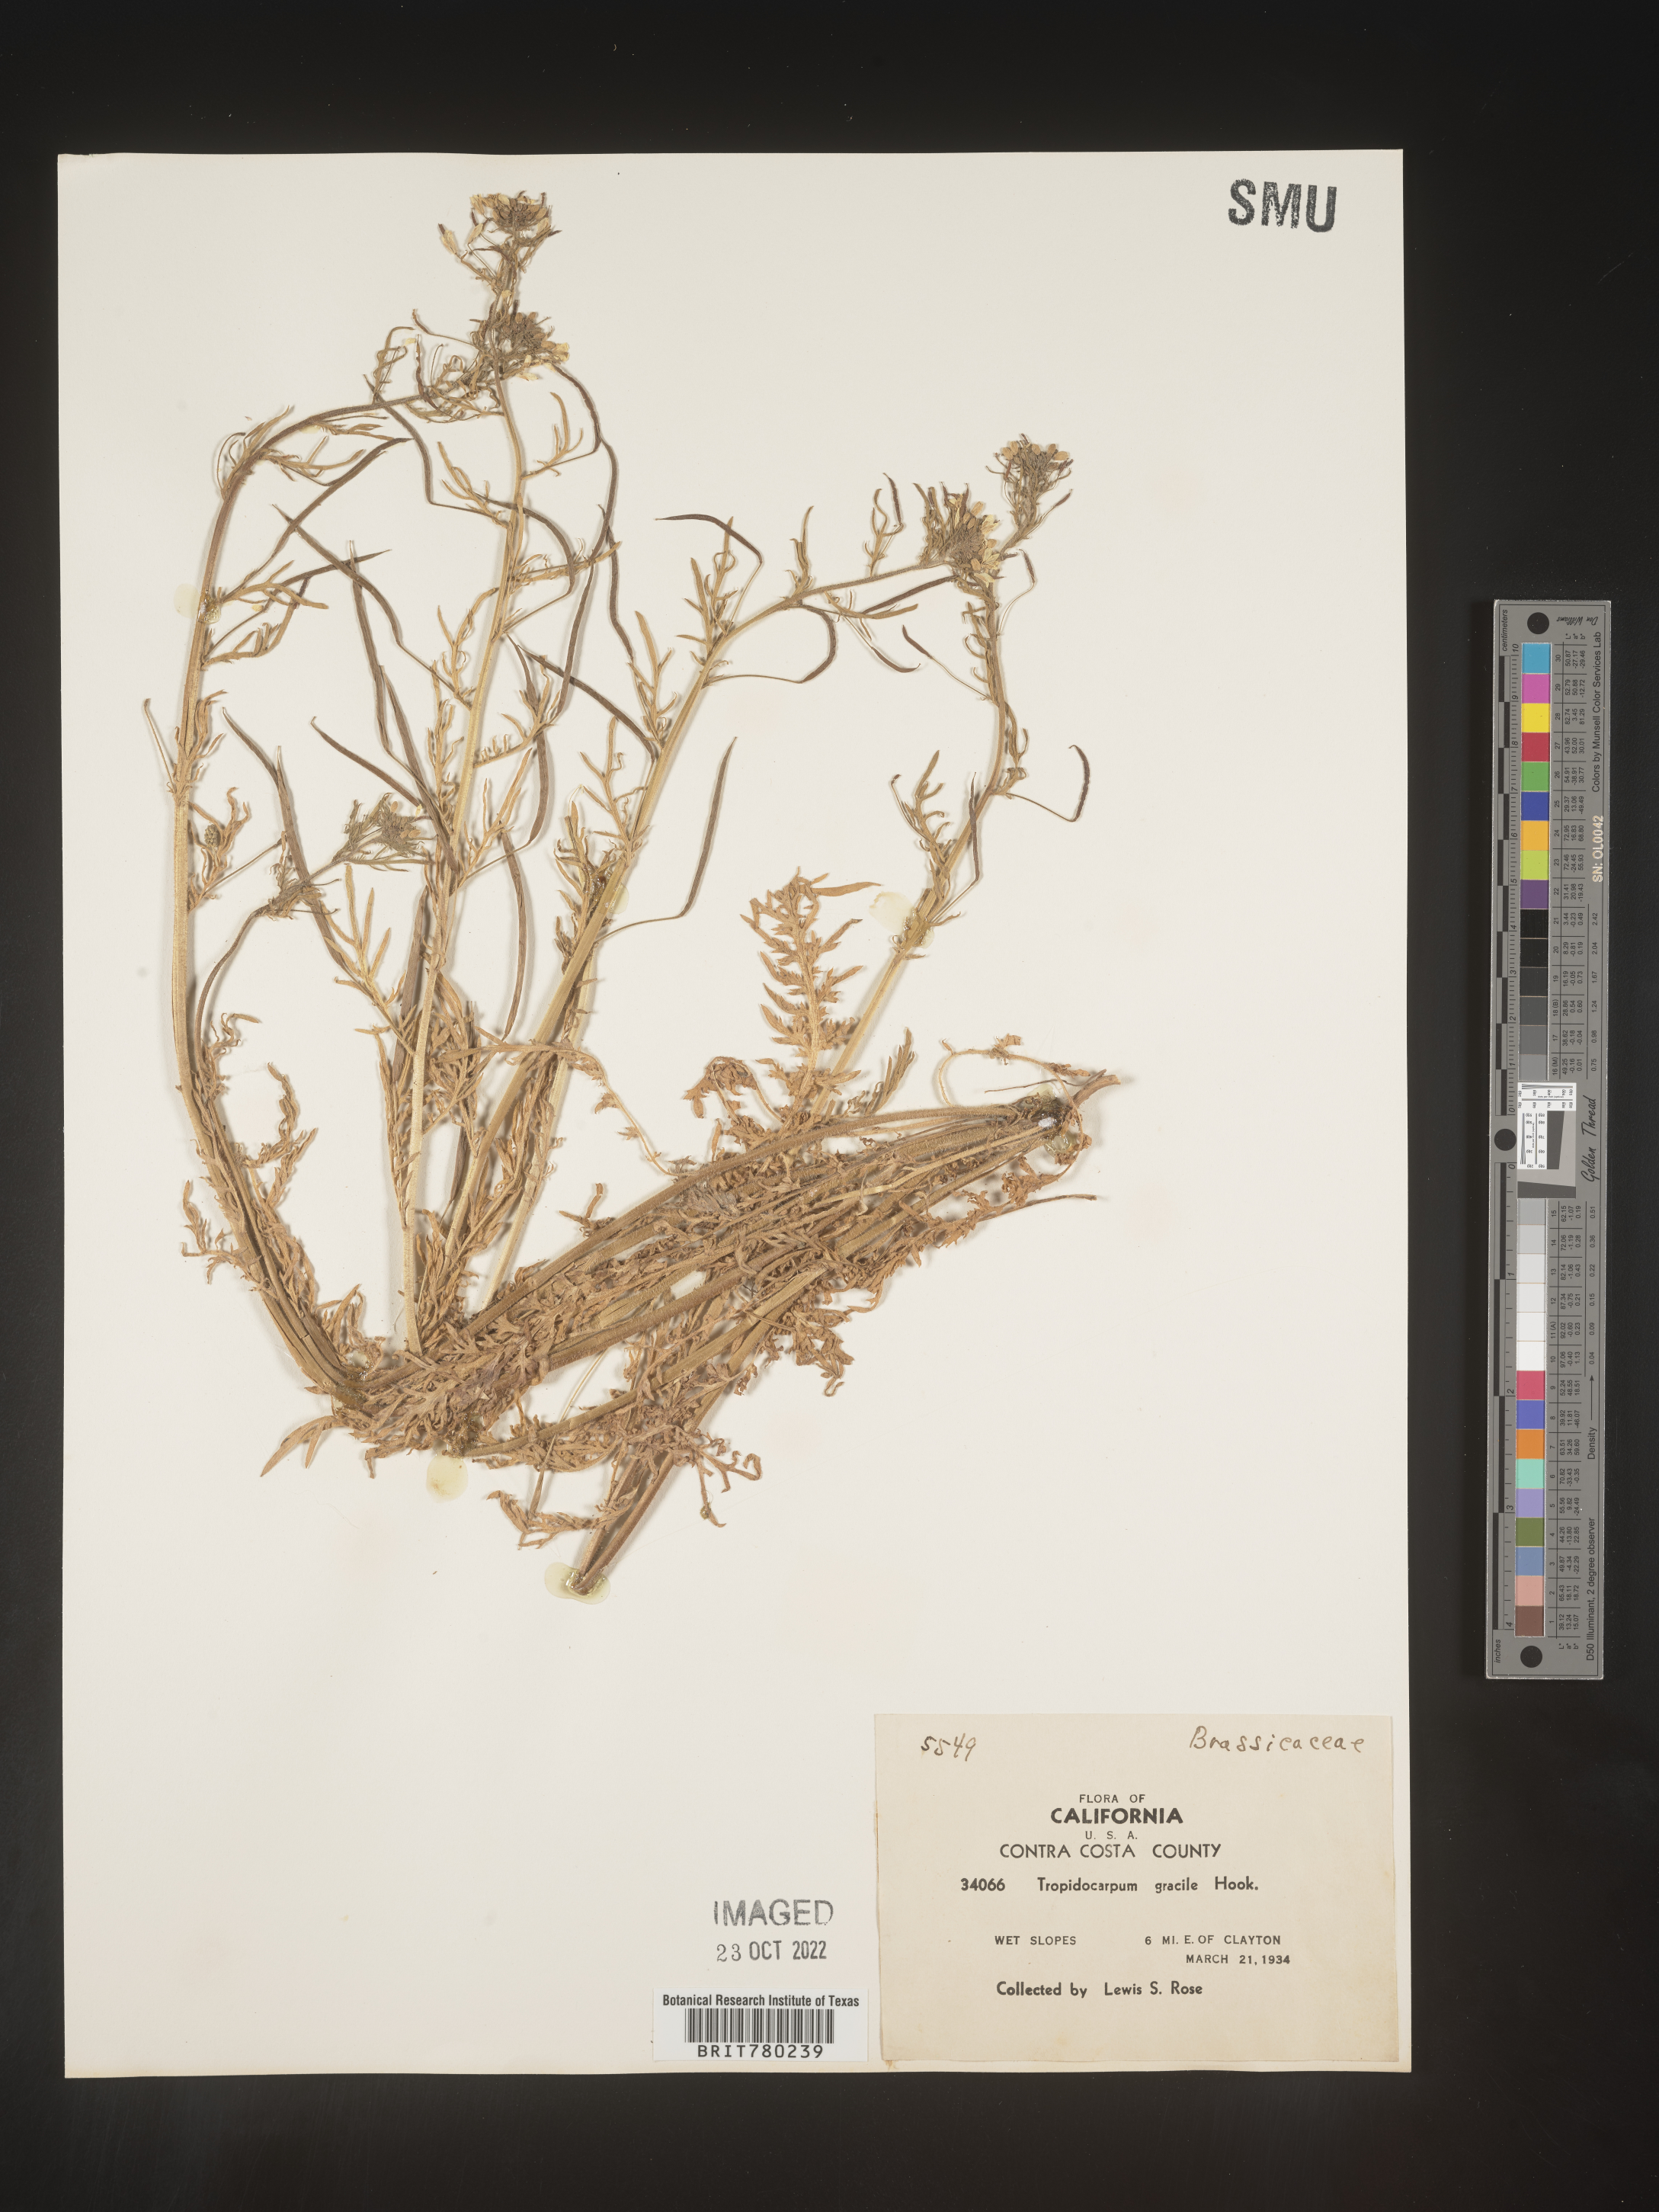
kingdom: Plantae
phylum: Tracheophyta
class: Magnoliopsida
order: Brassicales
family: Brassicaceae
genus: Tropidocarpum
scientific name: Tropidocarpum
